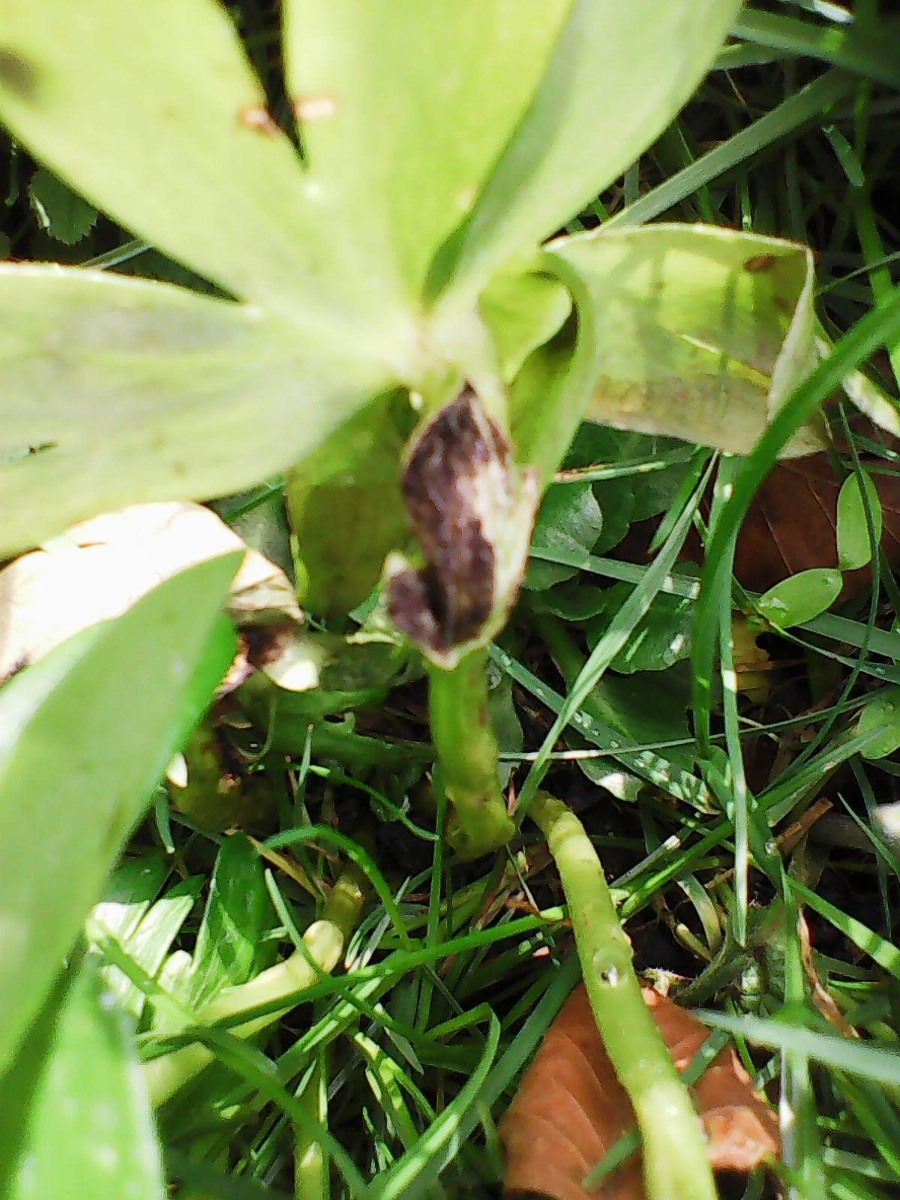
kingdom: Fungi
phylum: Basidiomycota
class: Ustilaginomycetes
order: Urocystidales
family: Urocystidaceae
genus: Urocystis
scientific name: Urocystis eranthidis
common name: erantis-brand
